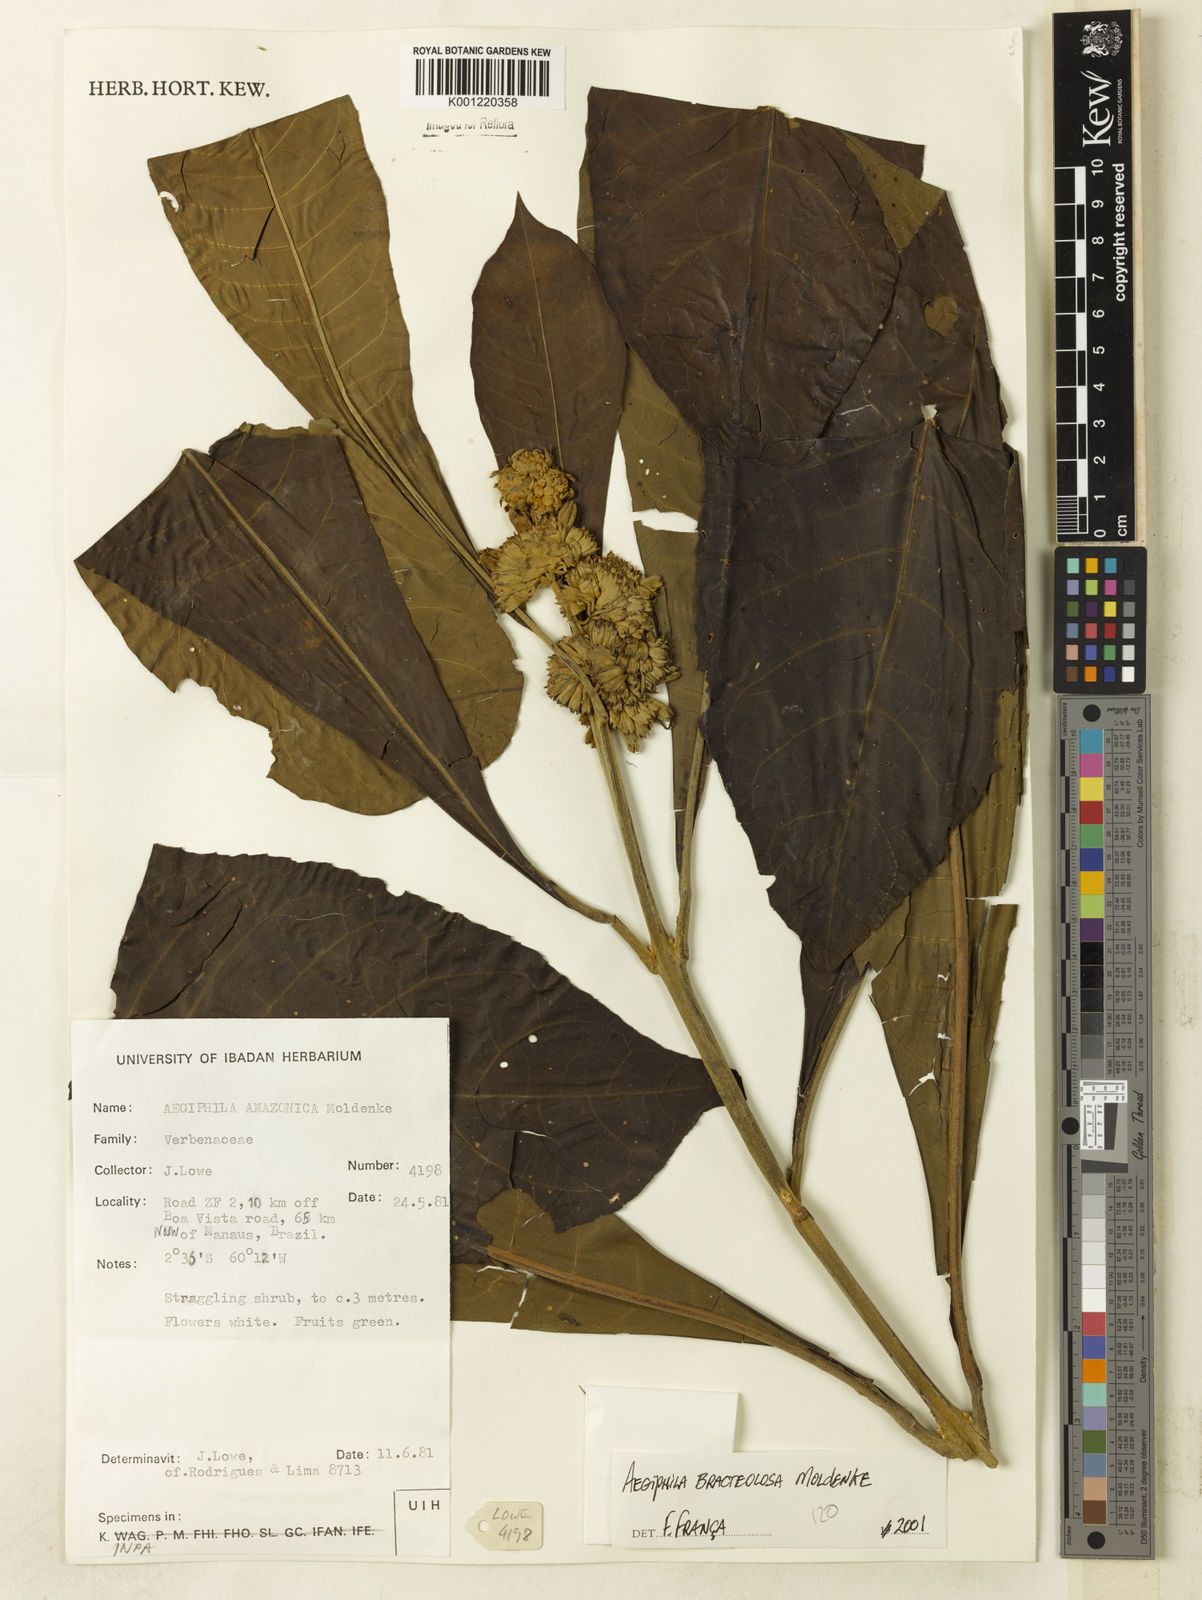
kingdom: Plantae
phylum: Tracheophyta
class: Magnoliopsida
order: Lamiales
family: Lamiaceae
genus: Aegiphila
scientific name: Aegiphila bracteolosa
